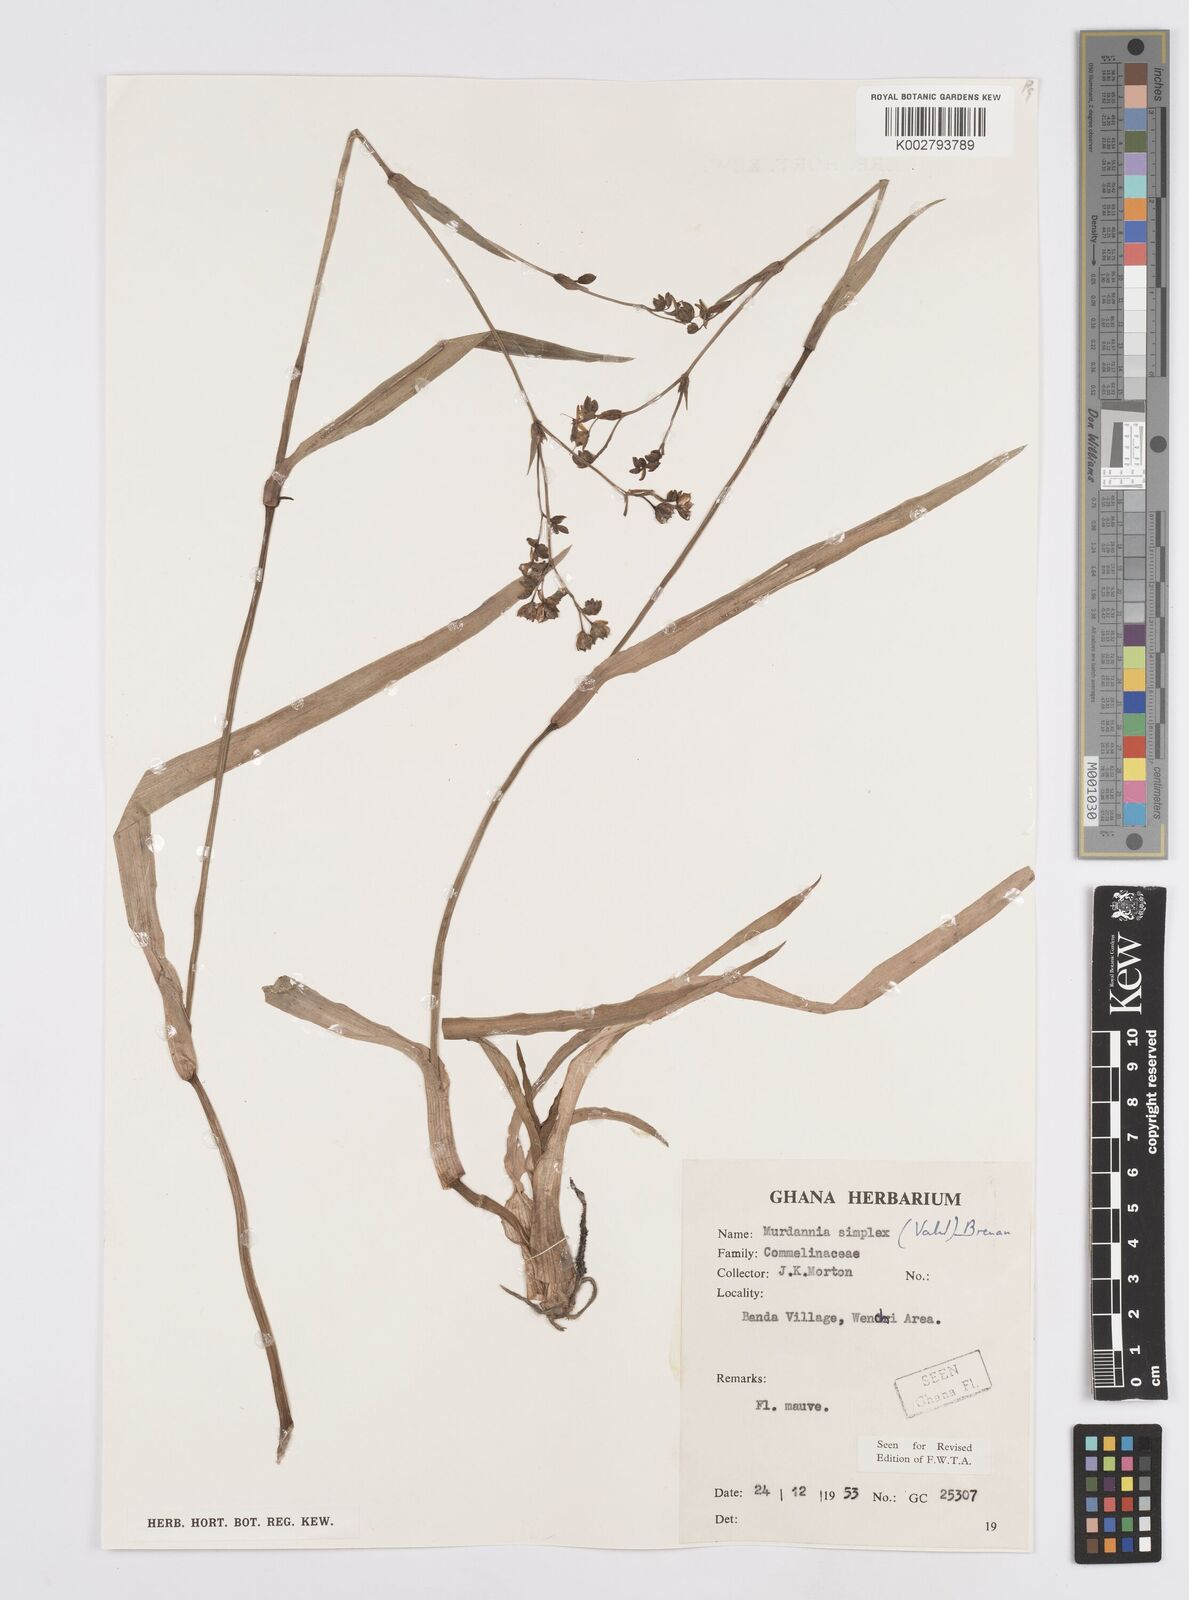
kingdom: Plantae
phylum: Tracheophyta
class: Liliopsida
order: Commelinales
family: Commelinaceae
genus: Murdannia
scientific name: Murdannia simplex
